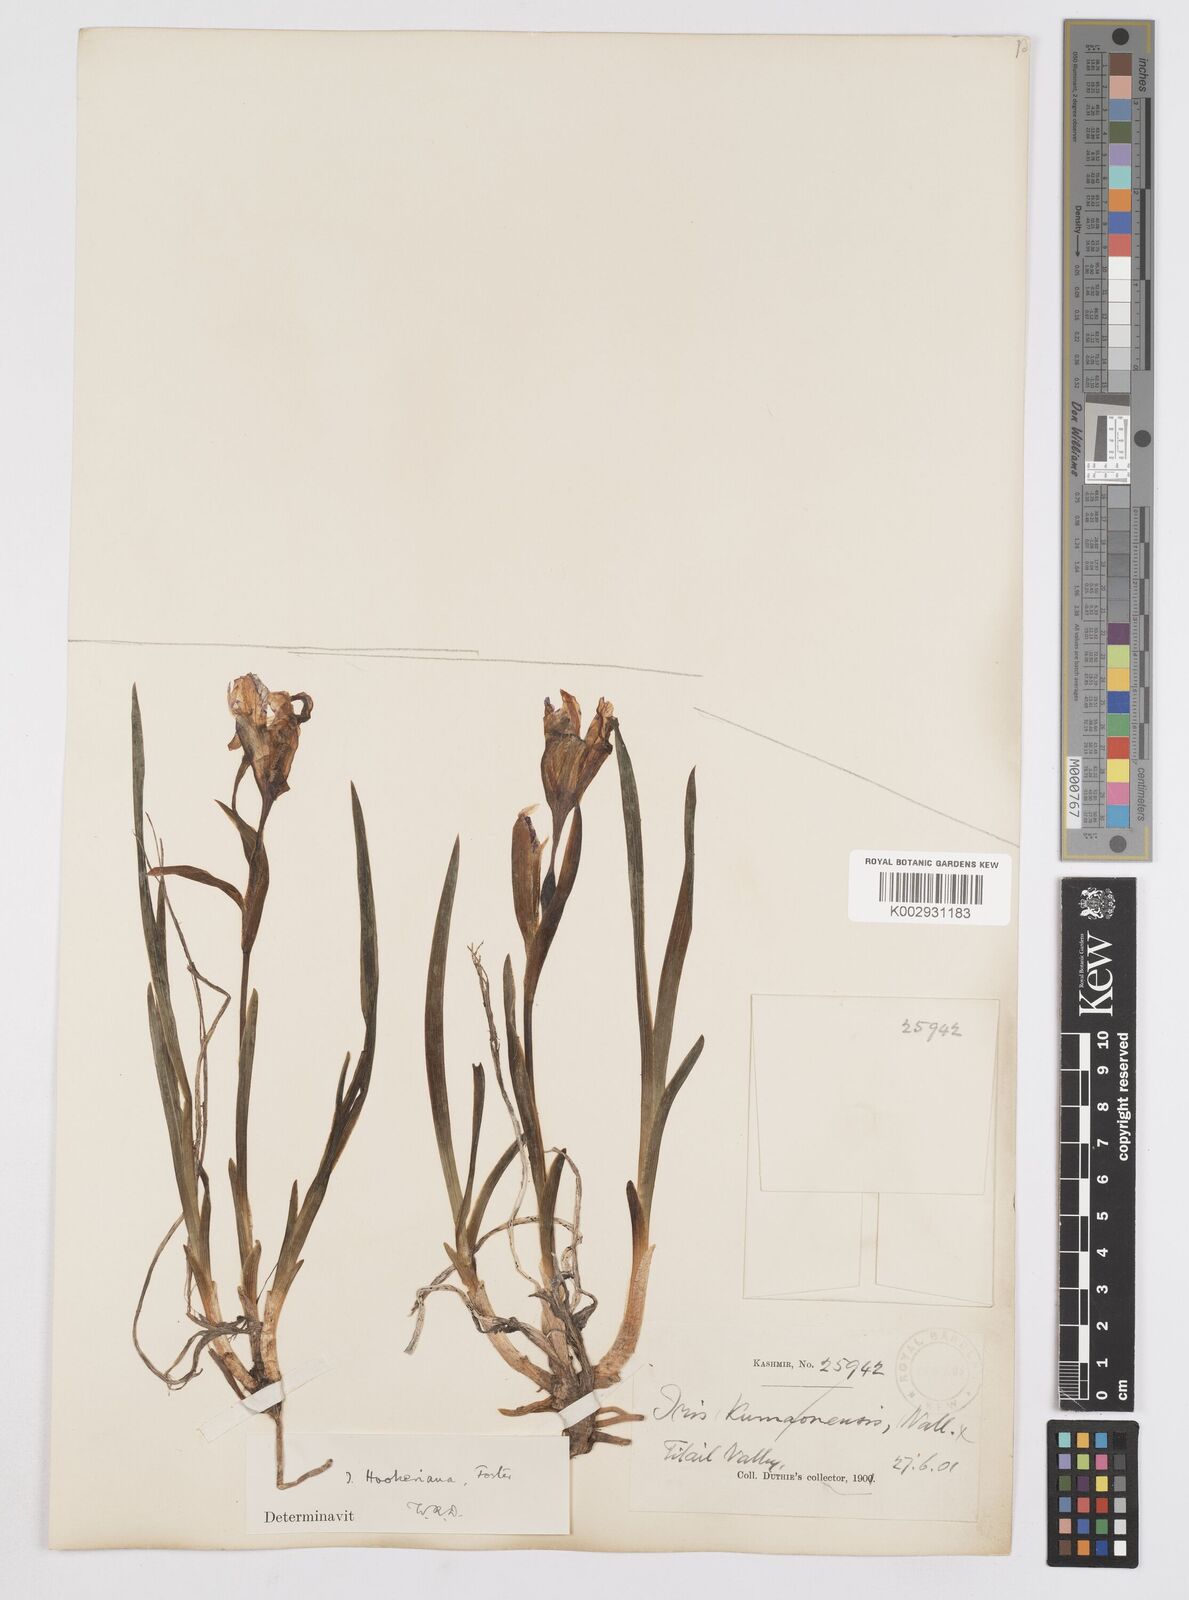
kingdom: Plantae
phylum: Tracheophyta
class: Liliopsida
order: Asparagales
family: Iridaceae
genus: Iris
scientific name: Iris hookeriana
